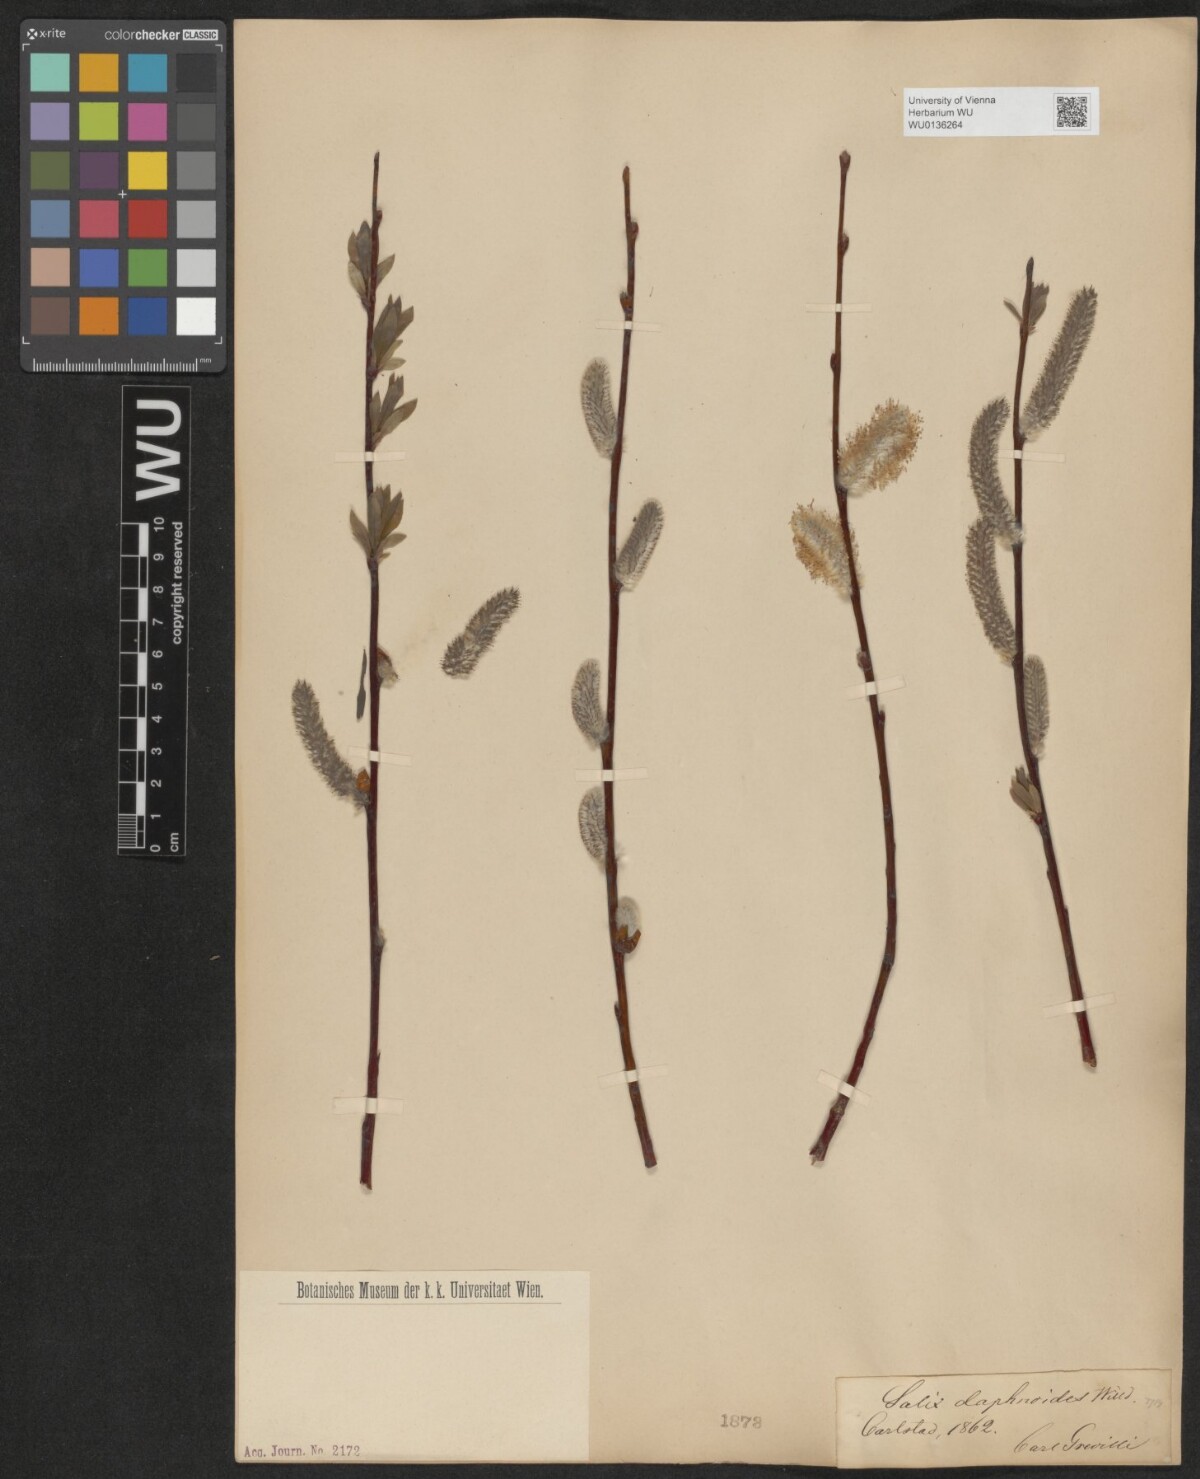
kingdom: Plantae
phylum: Tracheophyta
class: Magnoliopsida
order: Malpighiales
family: Salicaceae
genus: Salix
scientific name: Salix daphnoides
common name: European violet-willow
